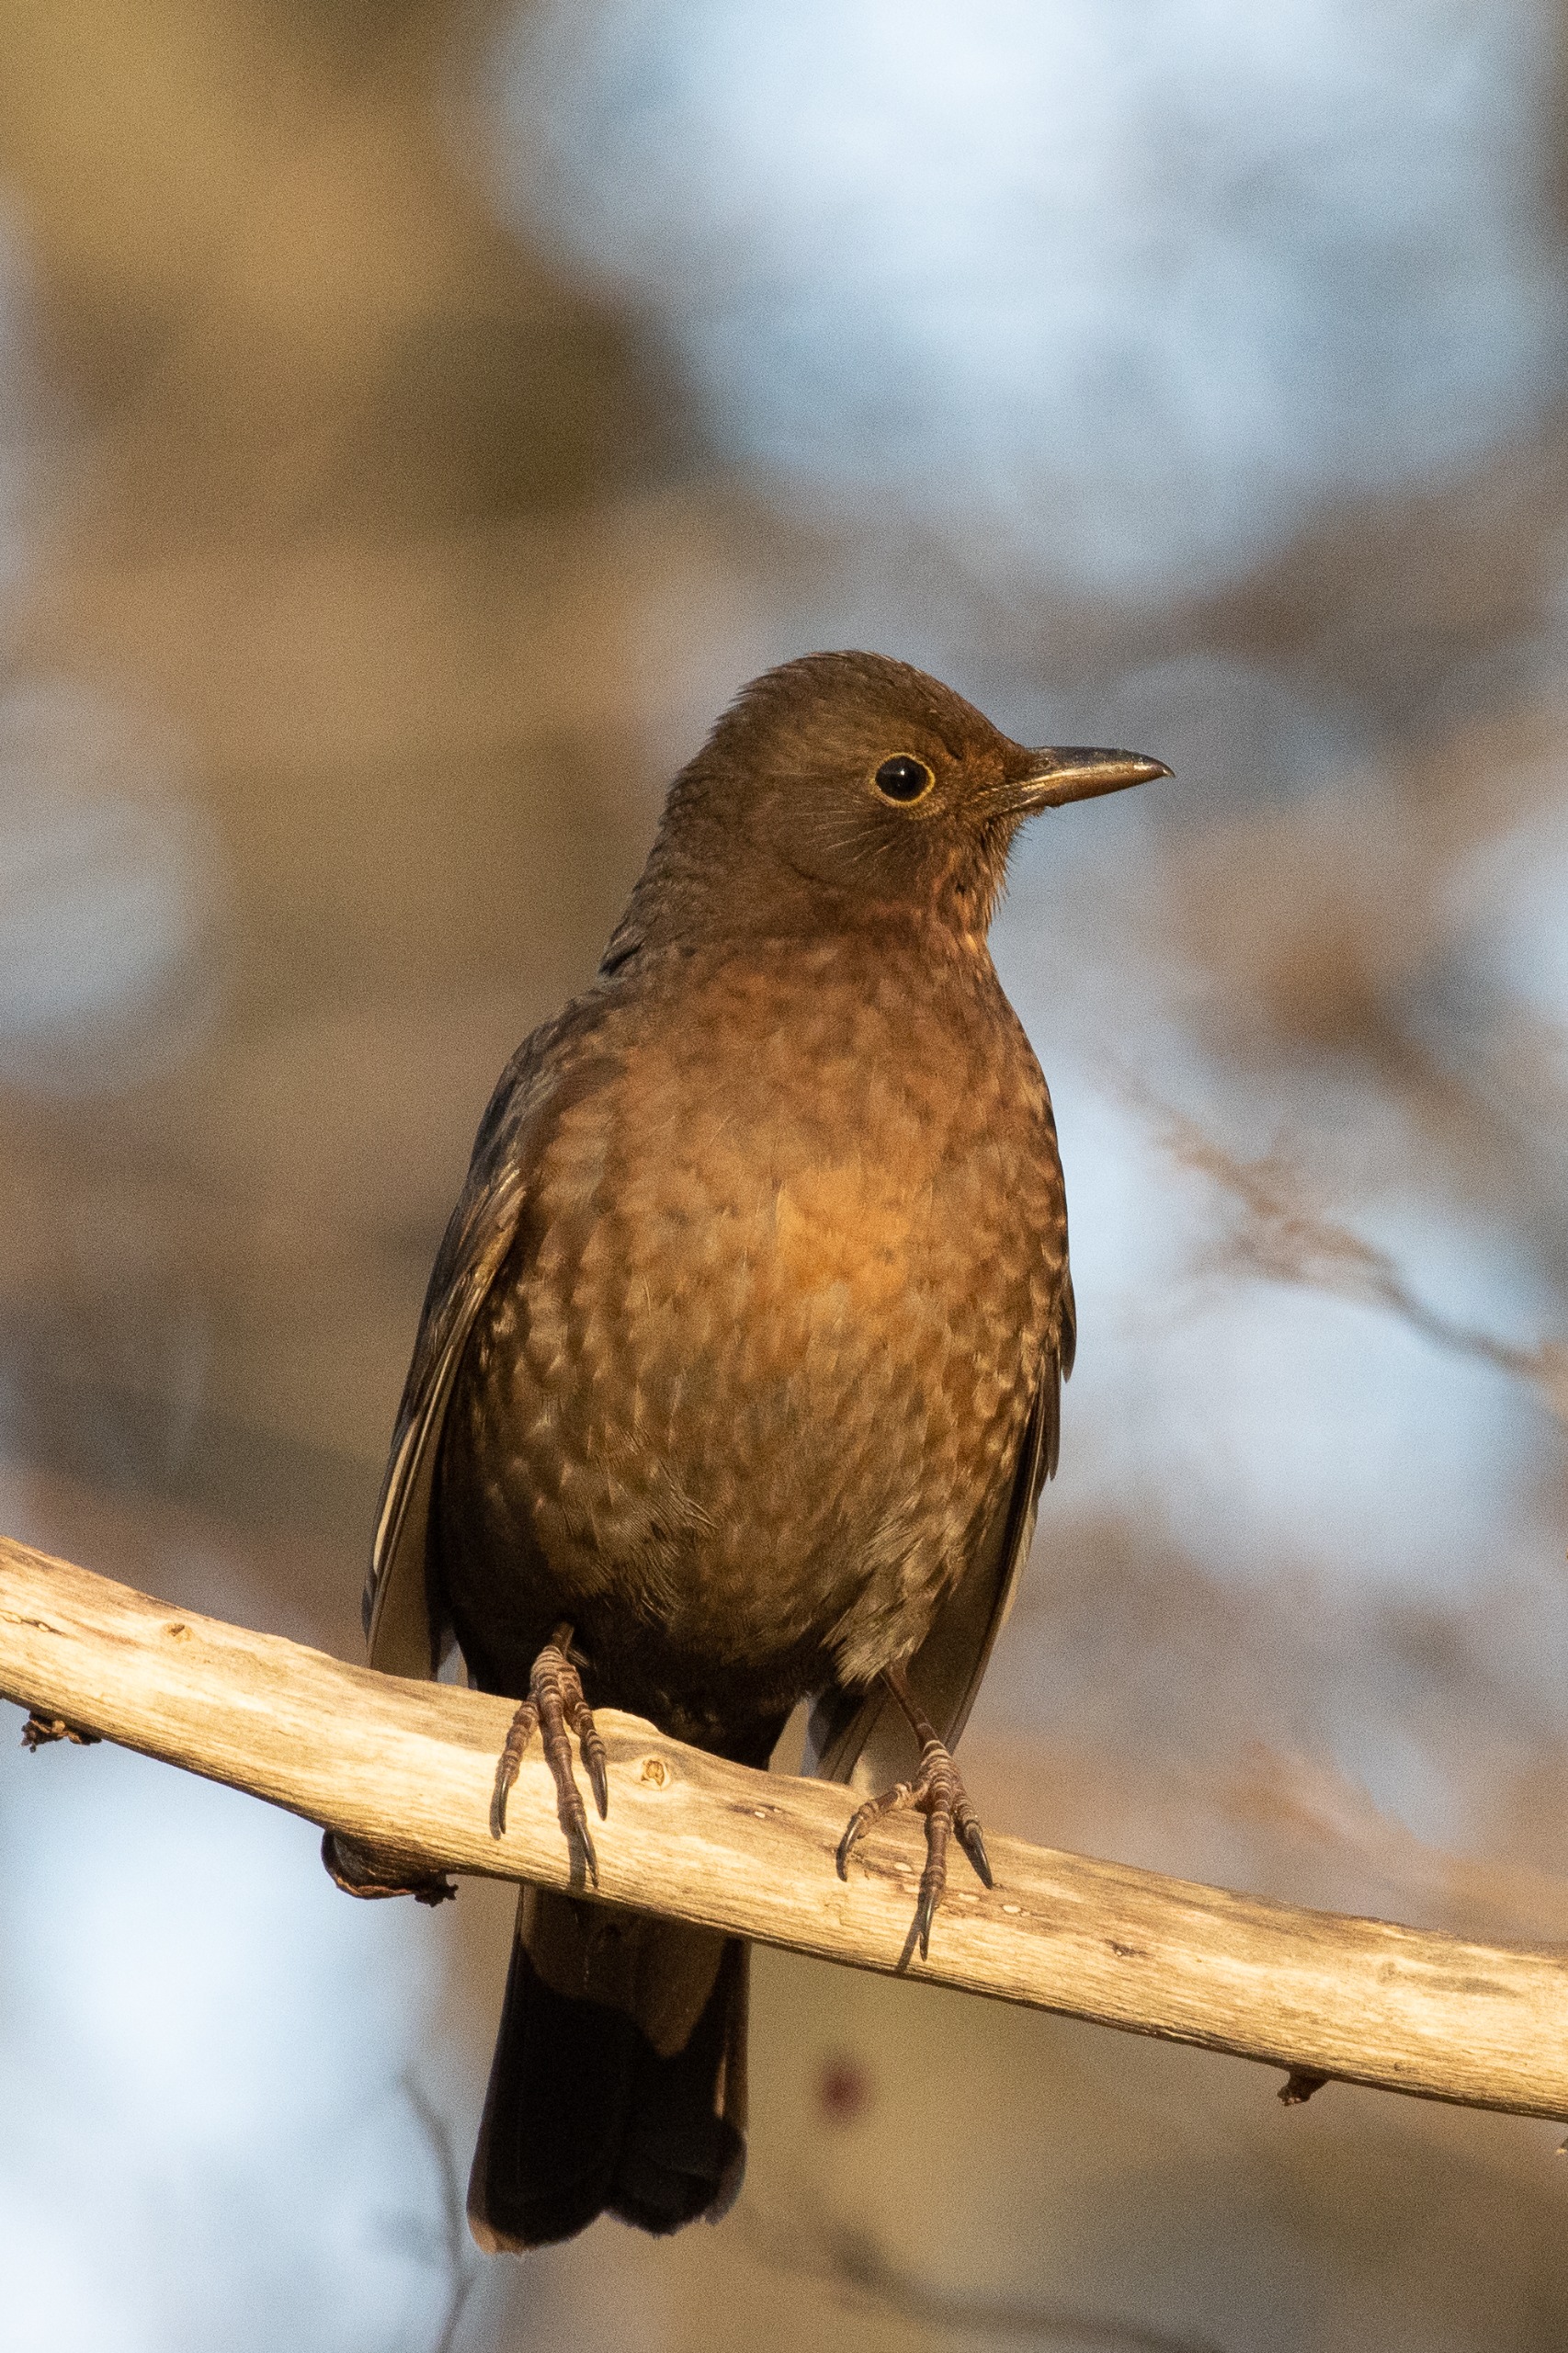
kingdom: Animalia
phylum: Chordata
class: Aves
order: Passeriformes
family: Turdidae
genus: Turdus
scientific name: Turdus merula
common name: Solsort
